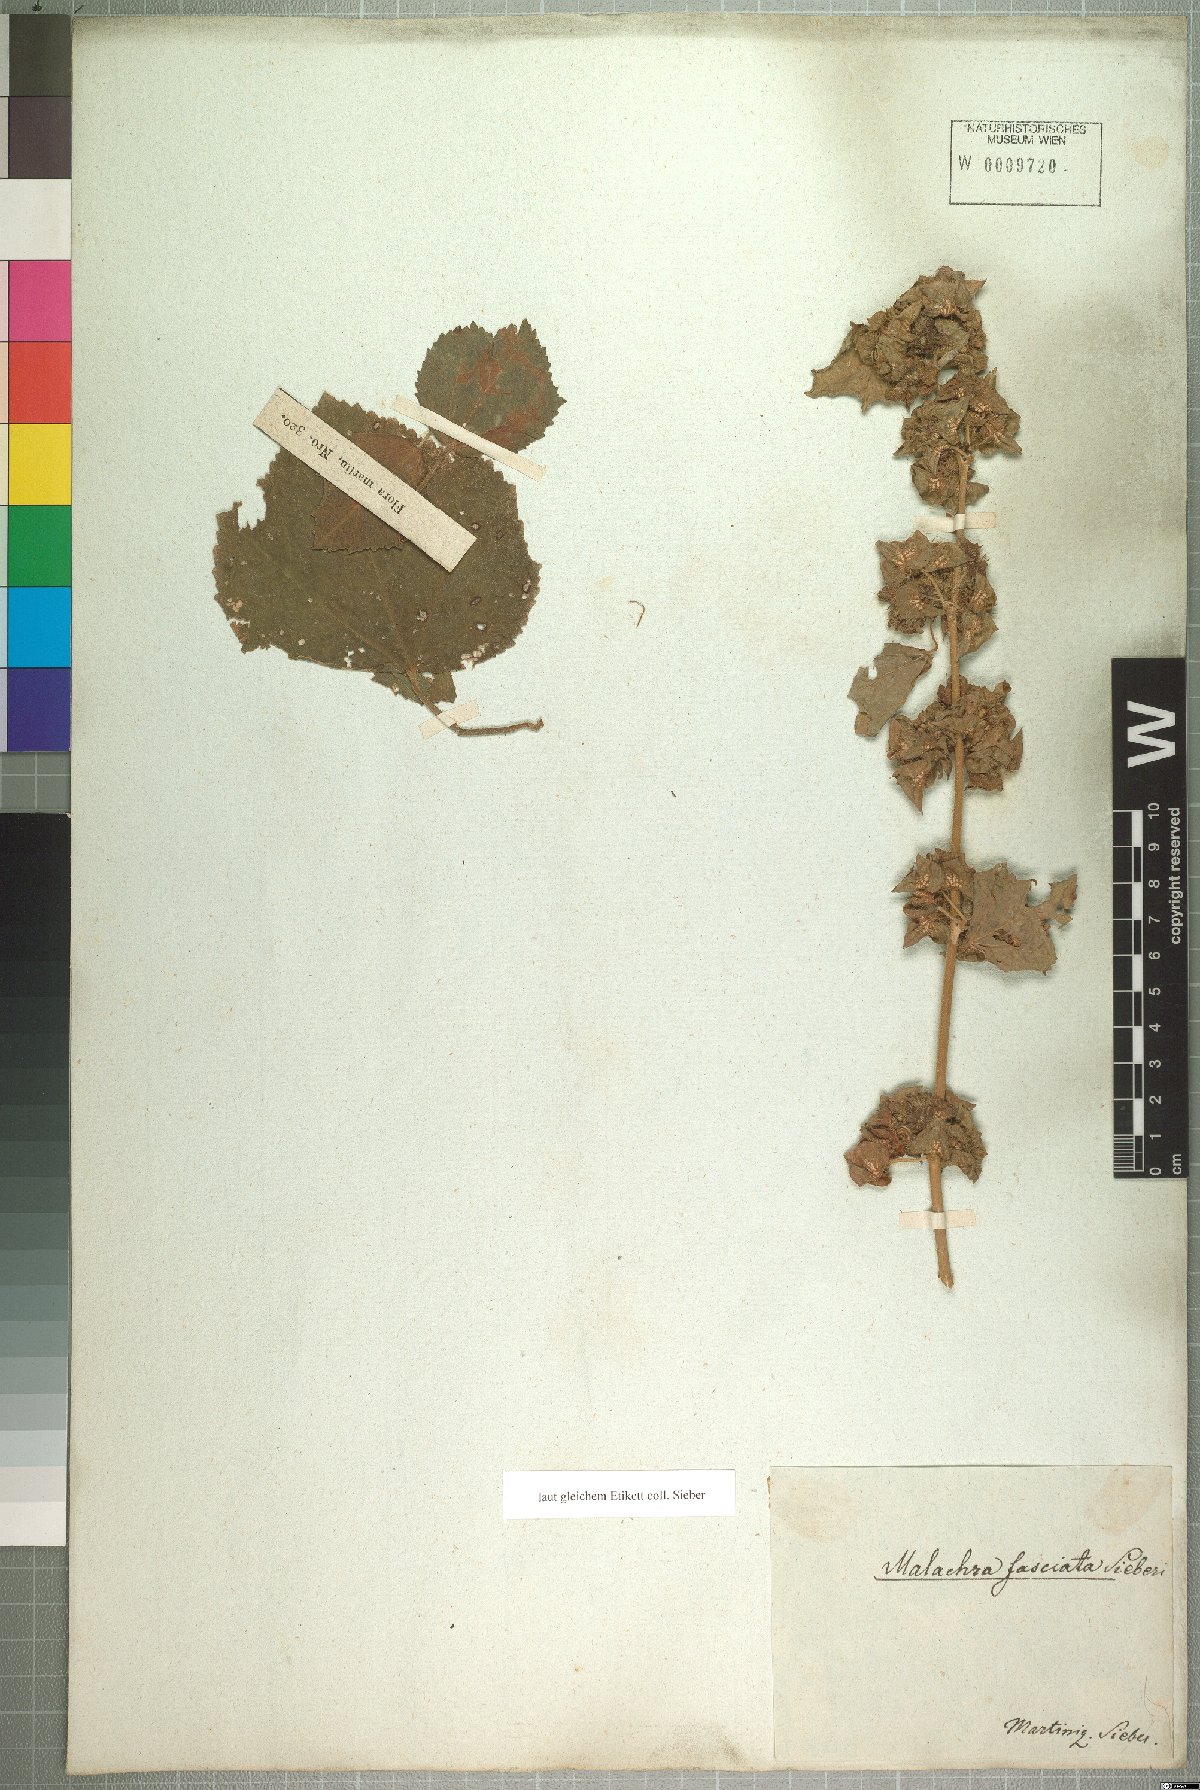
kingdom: Plantae
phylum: Tracheophyta
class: Magnoliopsida
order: Malvales
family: Malvaceae
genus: Malachra
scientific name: Malachra fasciata
